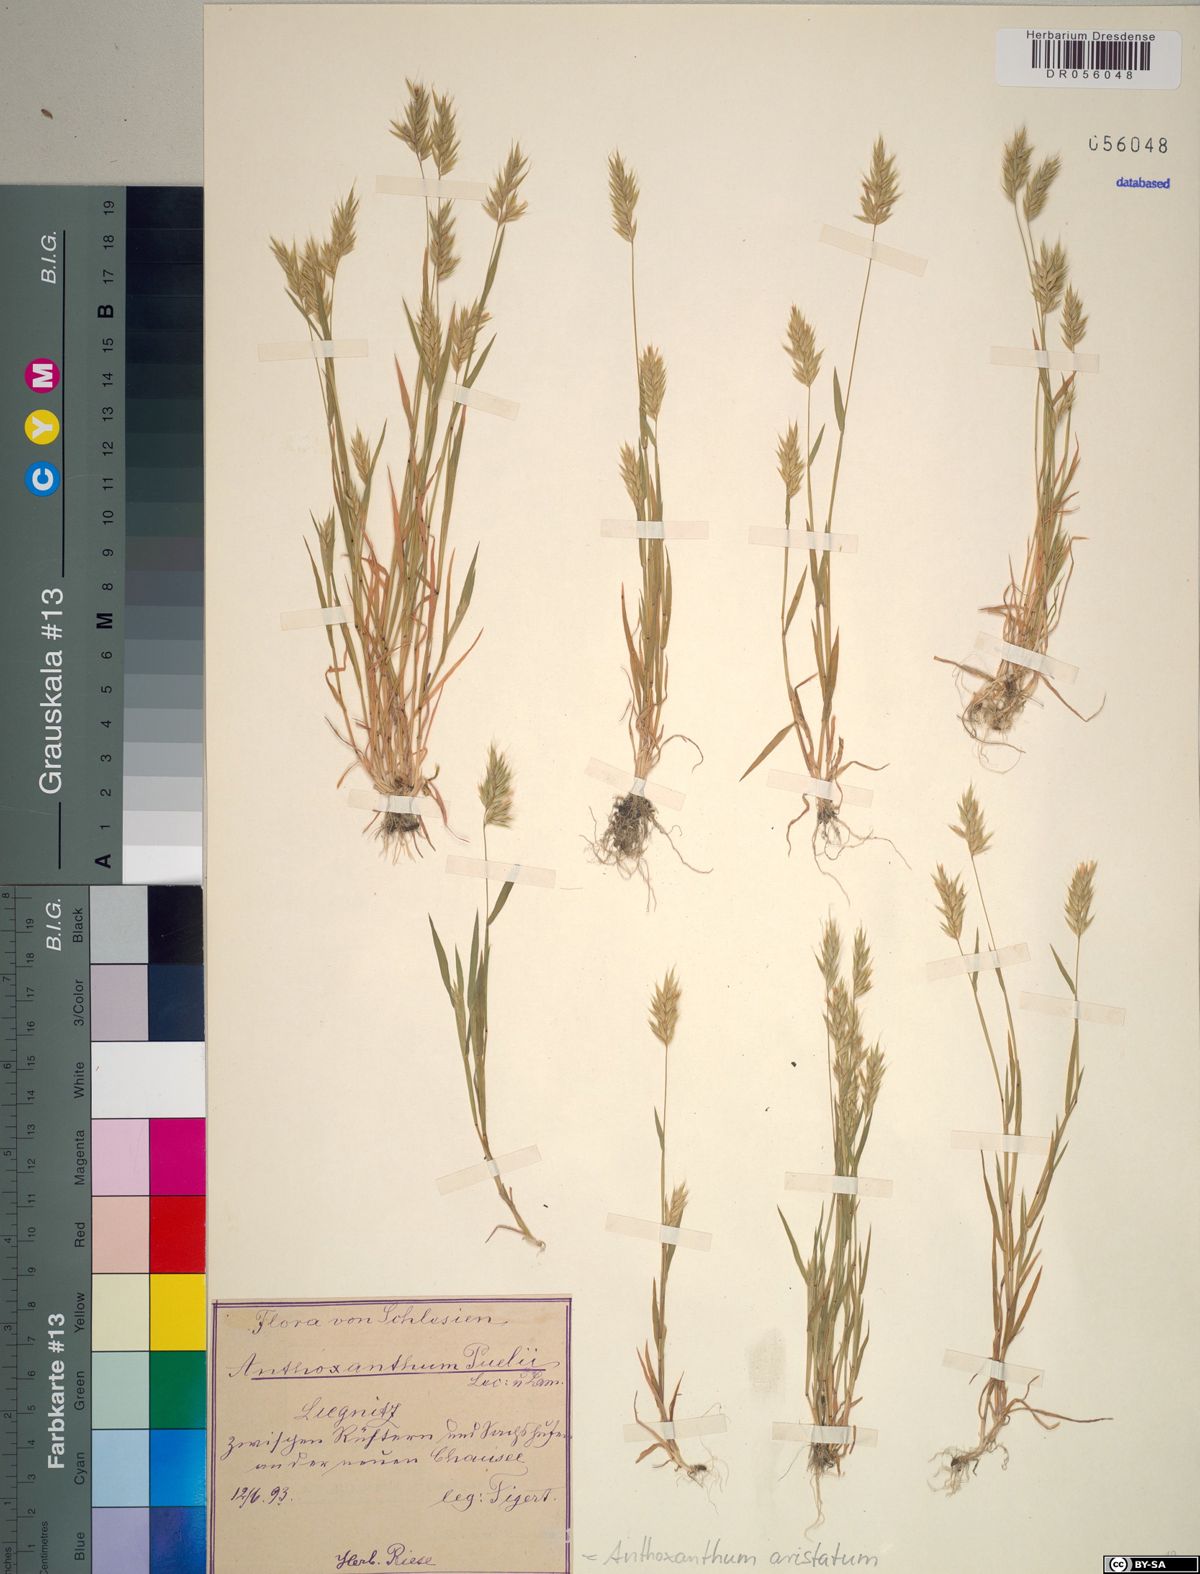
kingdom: Plantae
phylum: Tracheophyta
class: Liliopsida
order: Poales
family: Poaceae
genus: Anthoxanthum
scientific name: Anthoxanthum aristatum
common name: Annual vernal-grass
